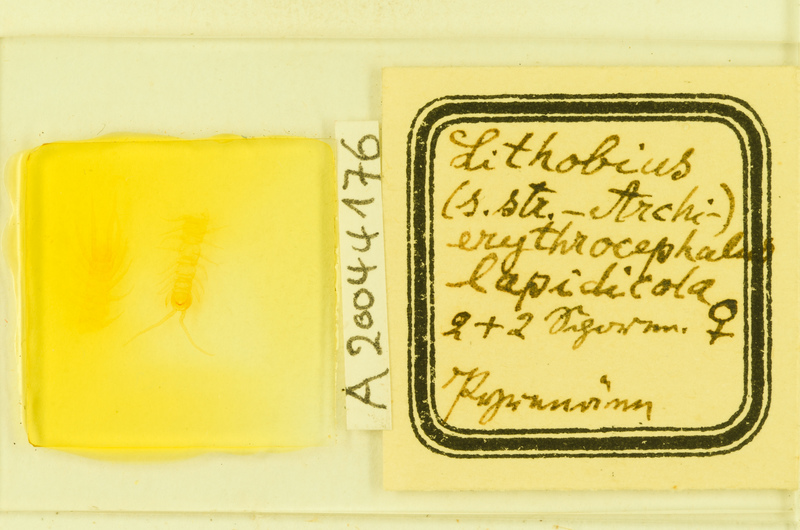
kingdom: Animalia
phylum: Arthropoda
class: Chilopoda
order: Lithobiomorpha
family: Lithobiidae
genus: Lithobius
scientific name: Lithobius erythrocephalus
